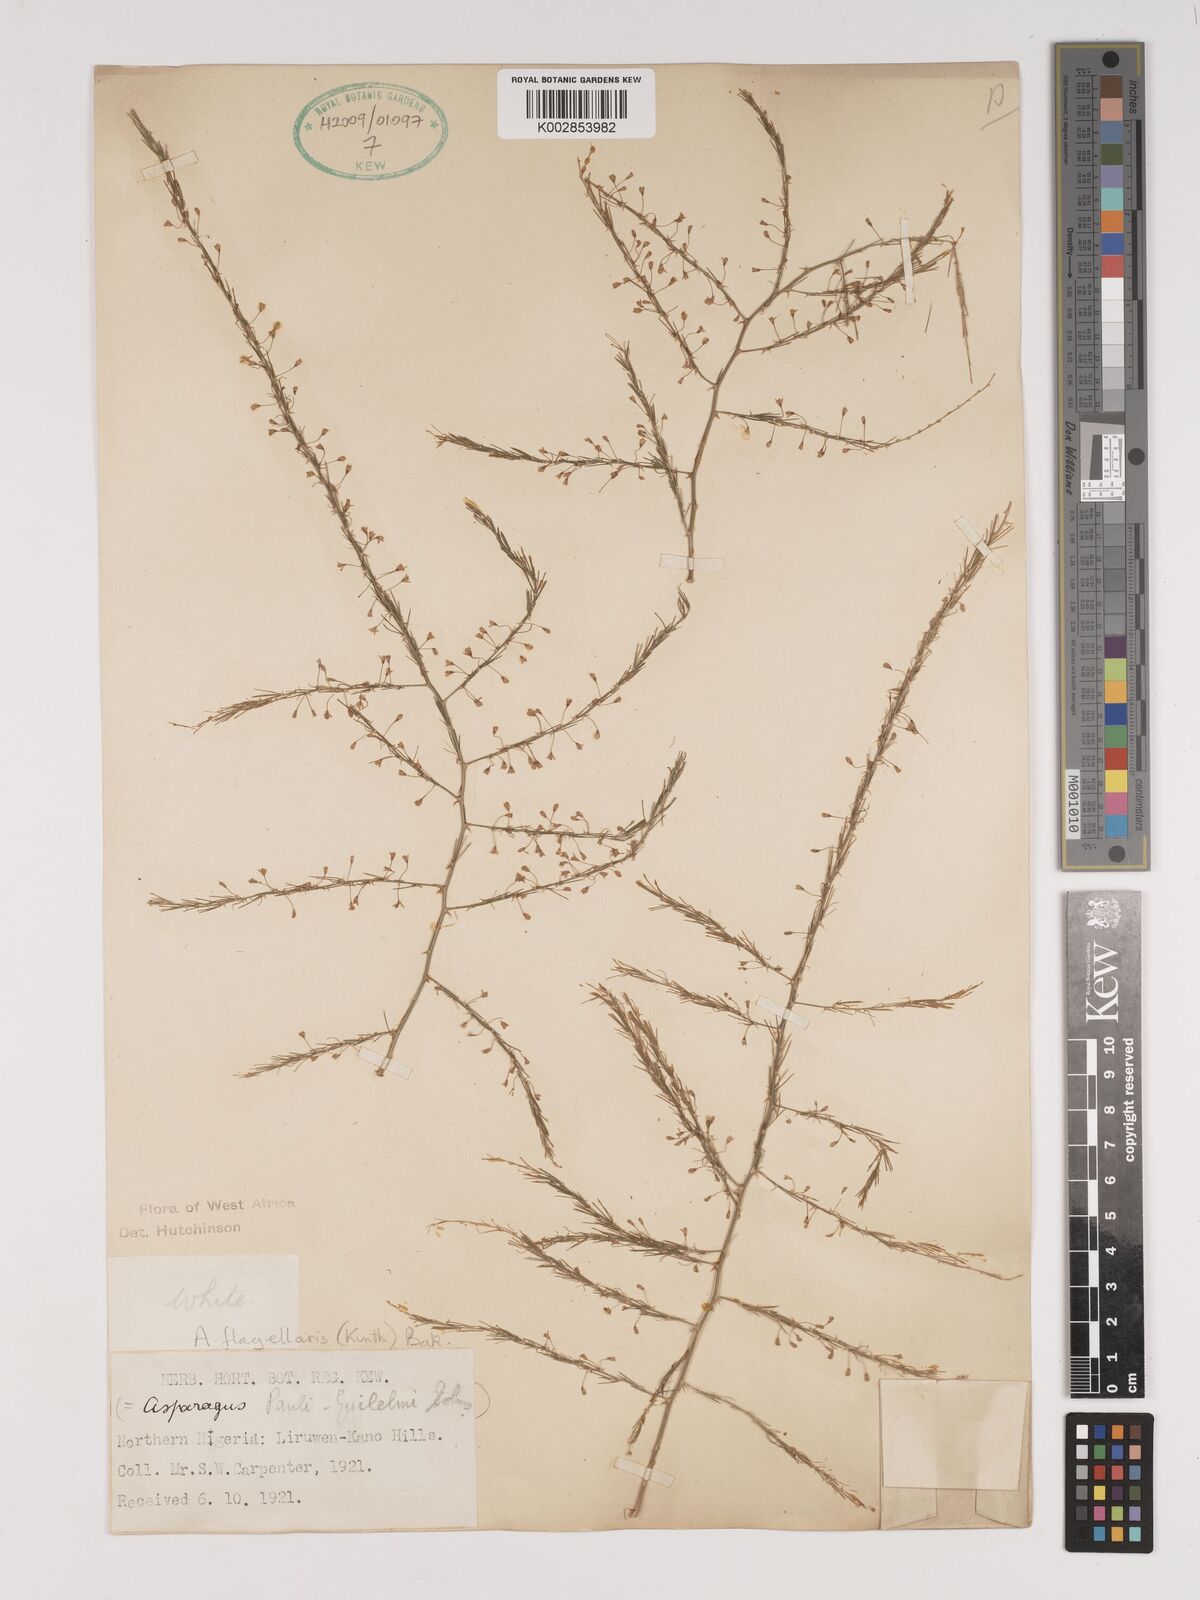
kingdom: Plantae
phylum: Tracheophyta
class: Liliopsida
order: Asparagales
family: Asparagaceae
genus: Asparagus
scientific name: Asparagus
